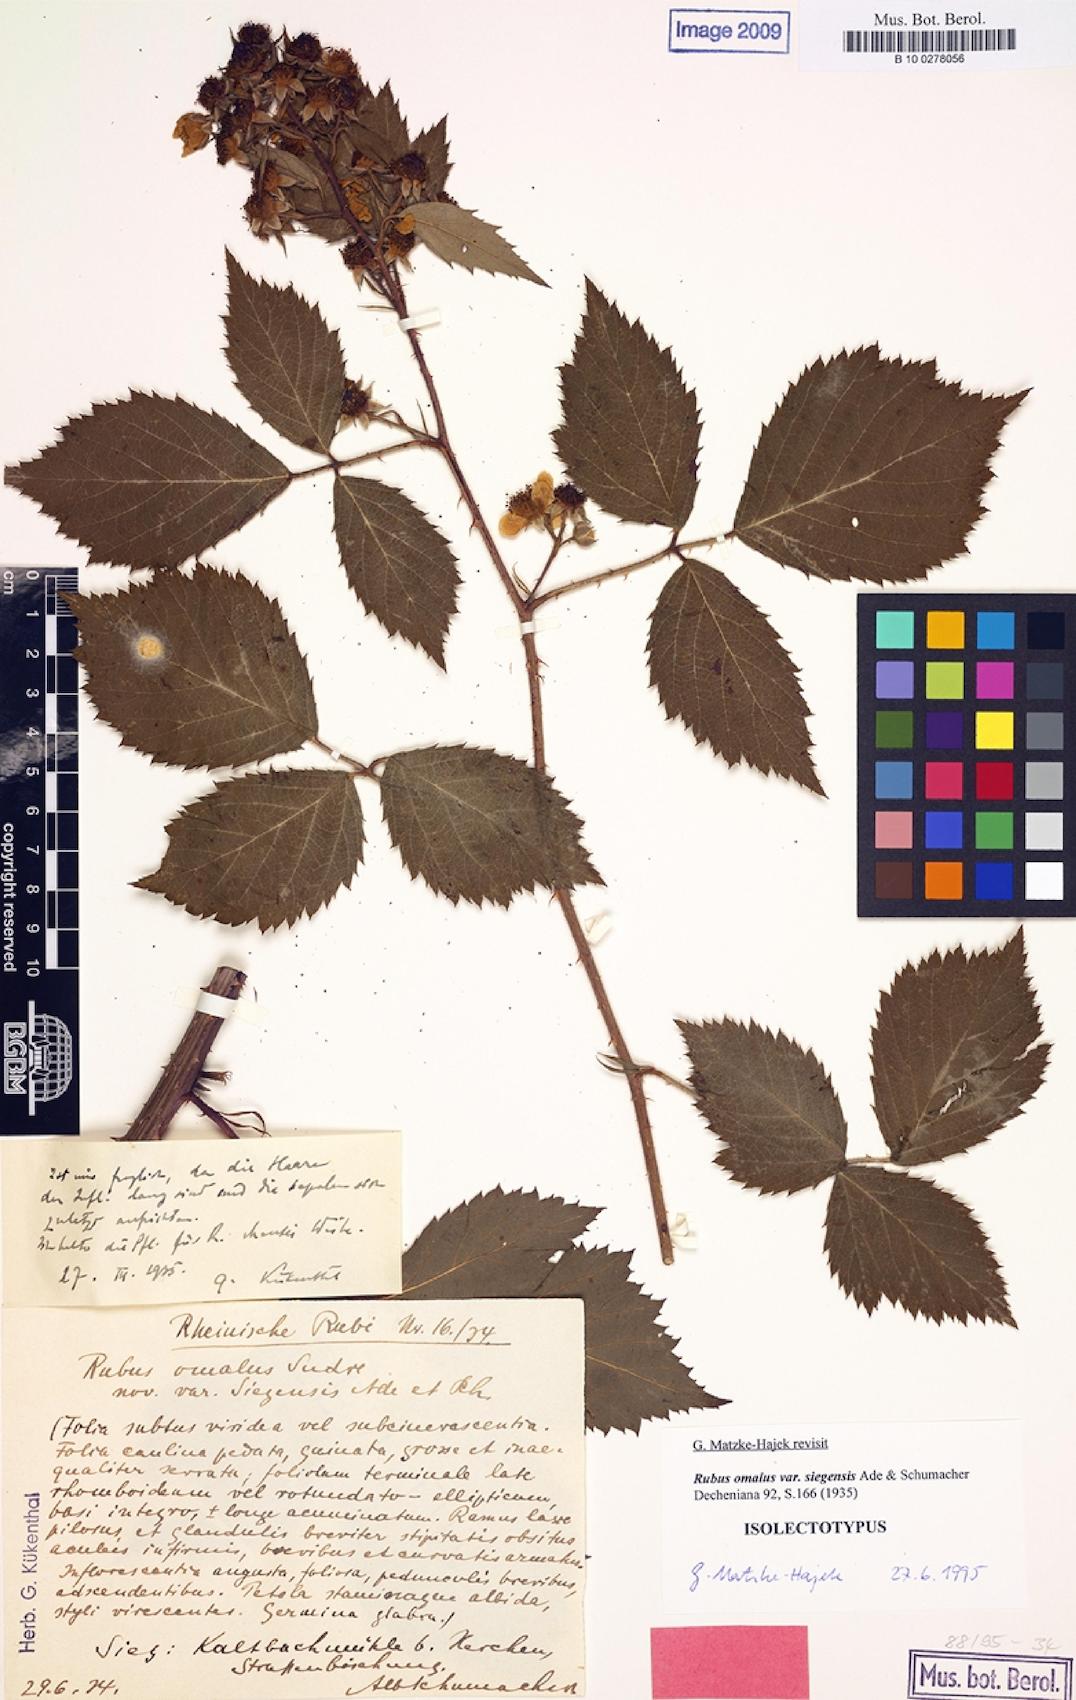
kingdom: Plantae
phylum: Tracheophyta
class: Magnoliopsida
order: Rosales
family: Rosaceae
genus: Rubus
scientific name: Rubus rudis
